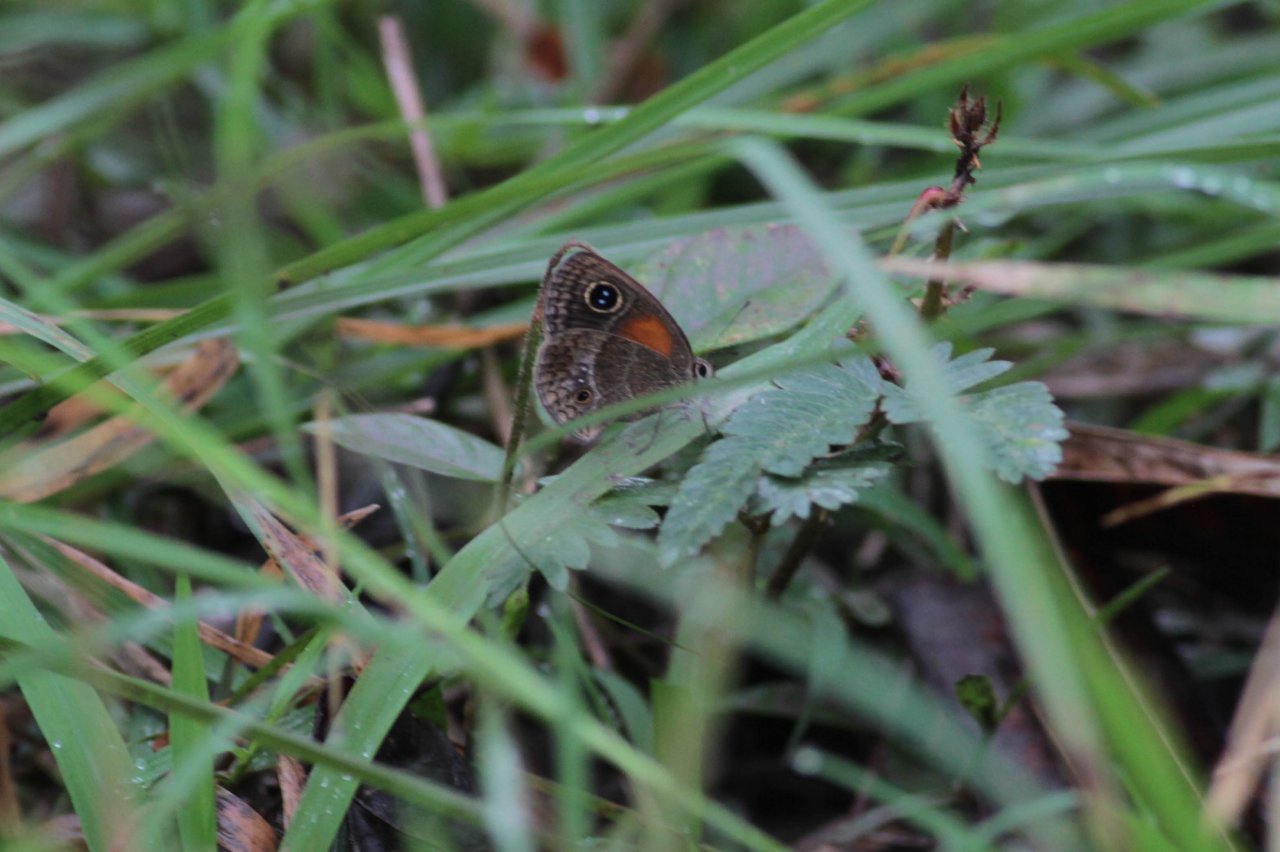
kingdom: Animalia
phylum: Arthropoda
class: Insecta
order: Lepidoptera
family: Nymphalidae
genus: Calisto
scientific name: Calisto confusa
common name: Confused Calisto
